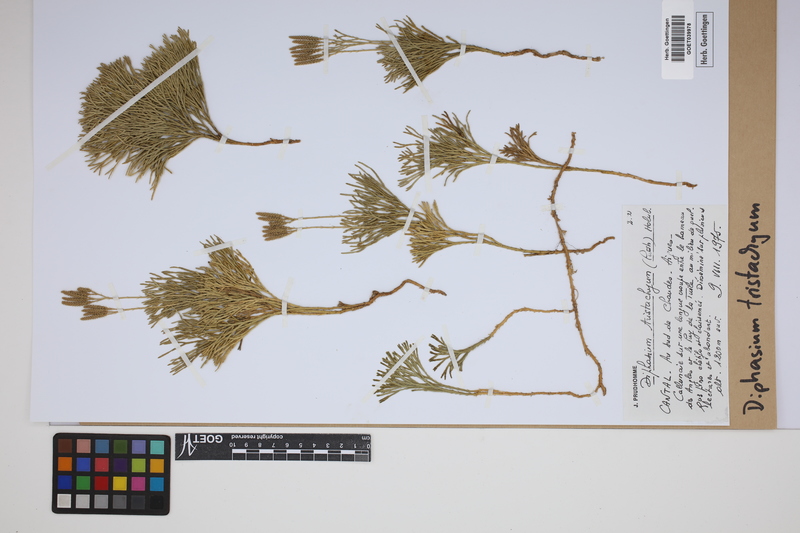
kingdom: Plantae
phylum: Tracheophyta
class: Lycopodiopsida
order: Lycopodiales
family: Lycopodiaceae
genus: Diphasiastrum
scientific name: Diphasiastrum tristachyum
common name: Blue ground-cedar
